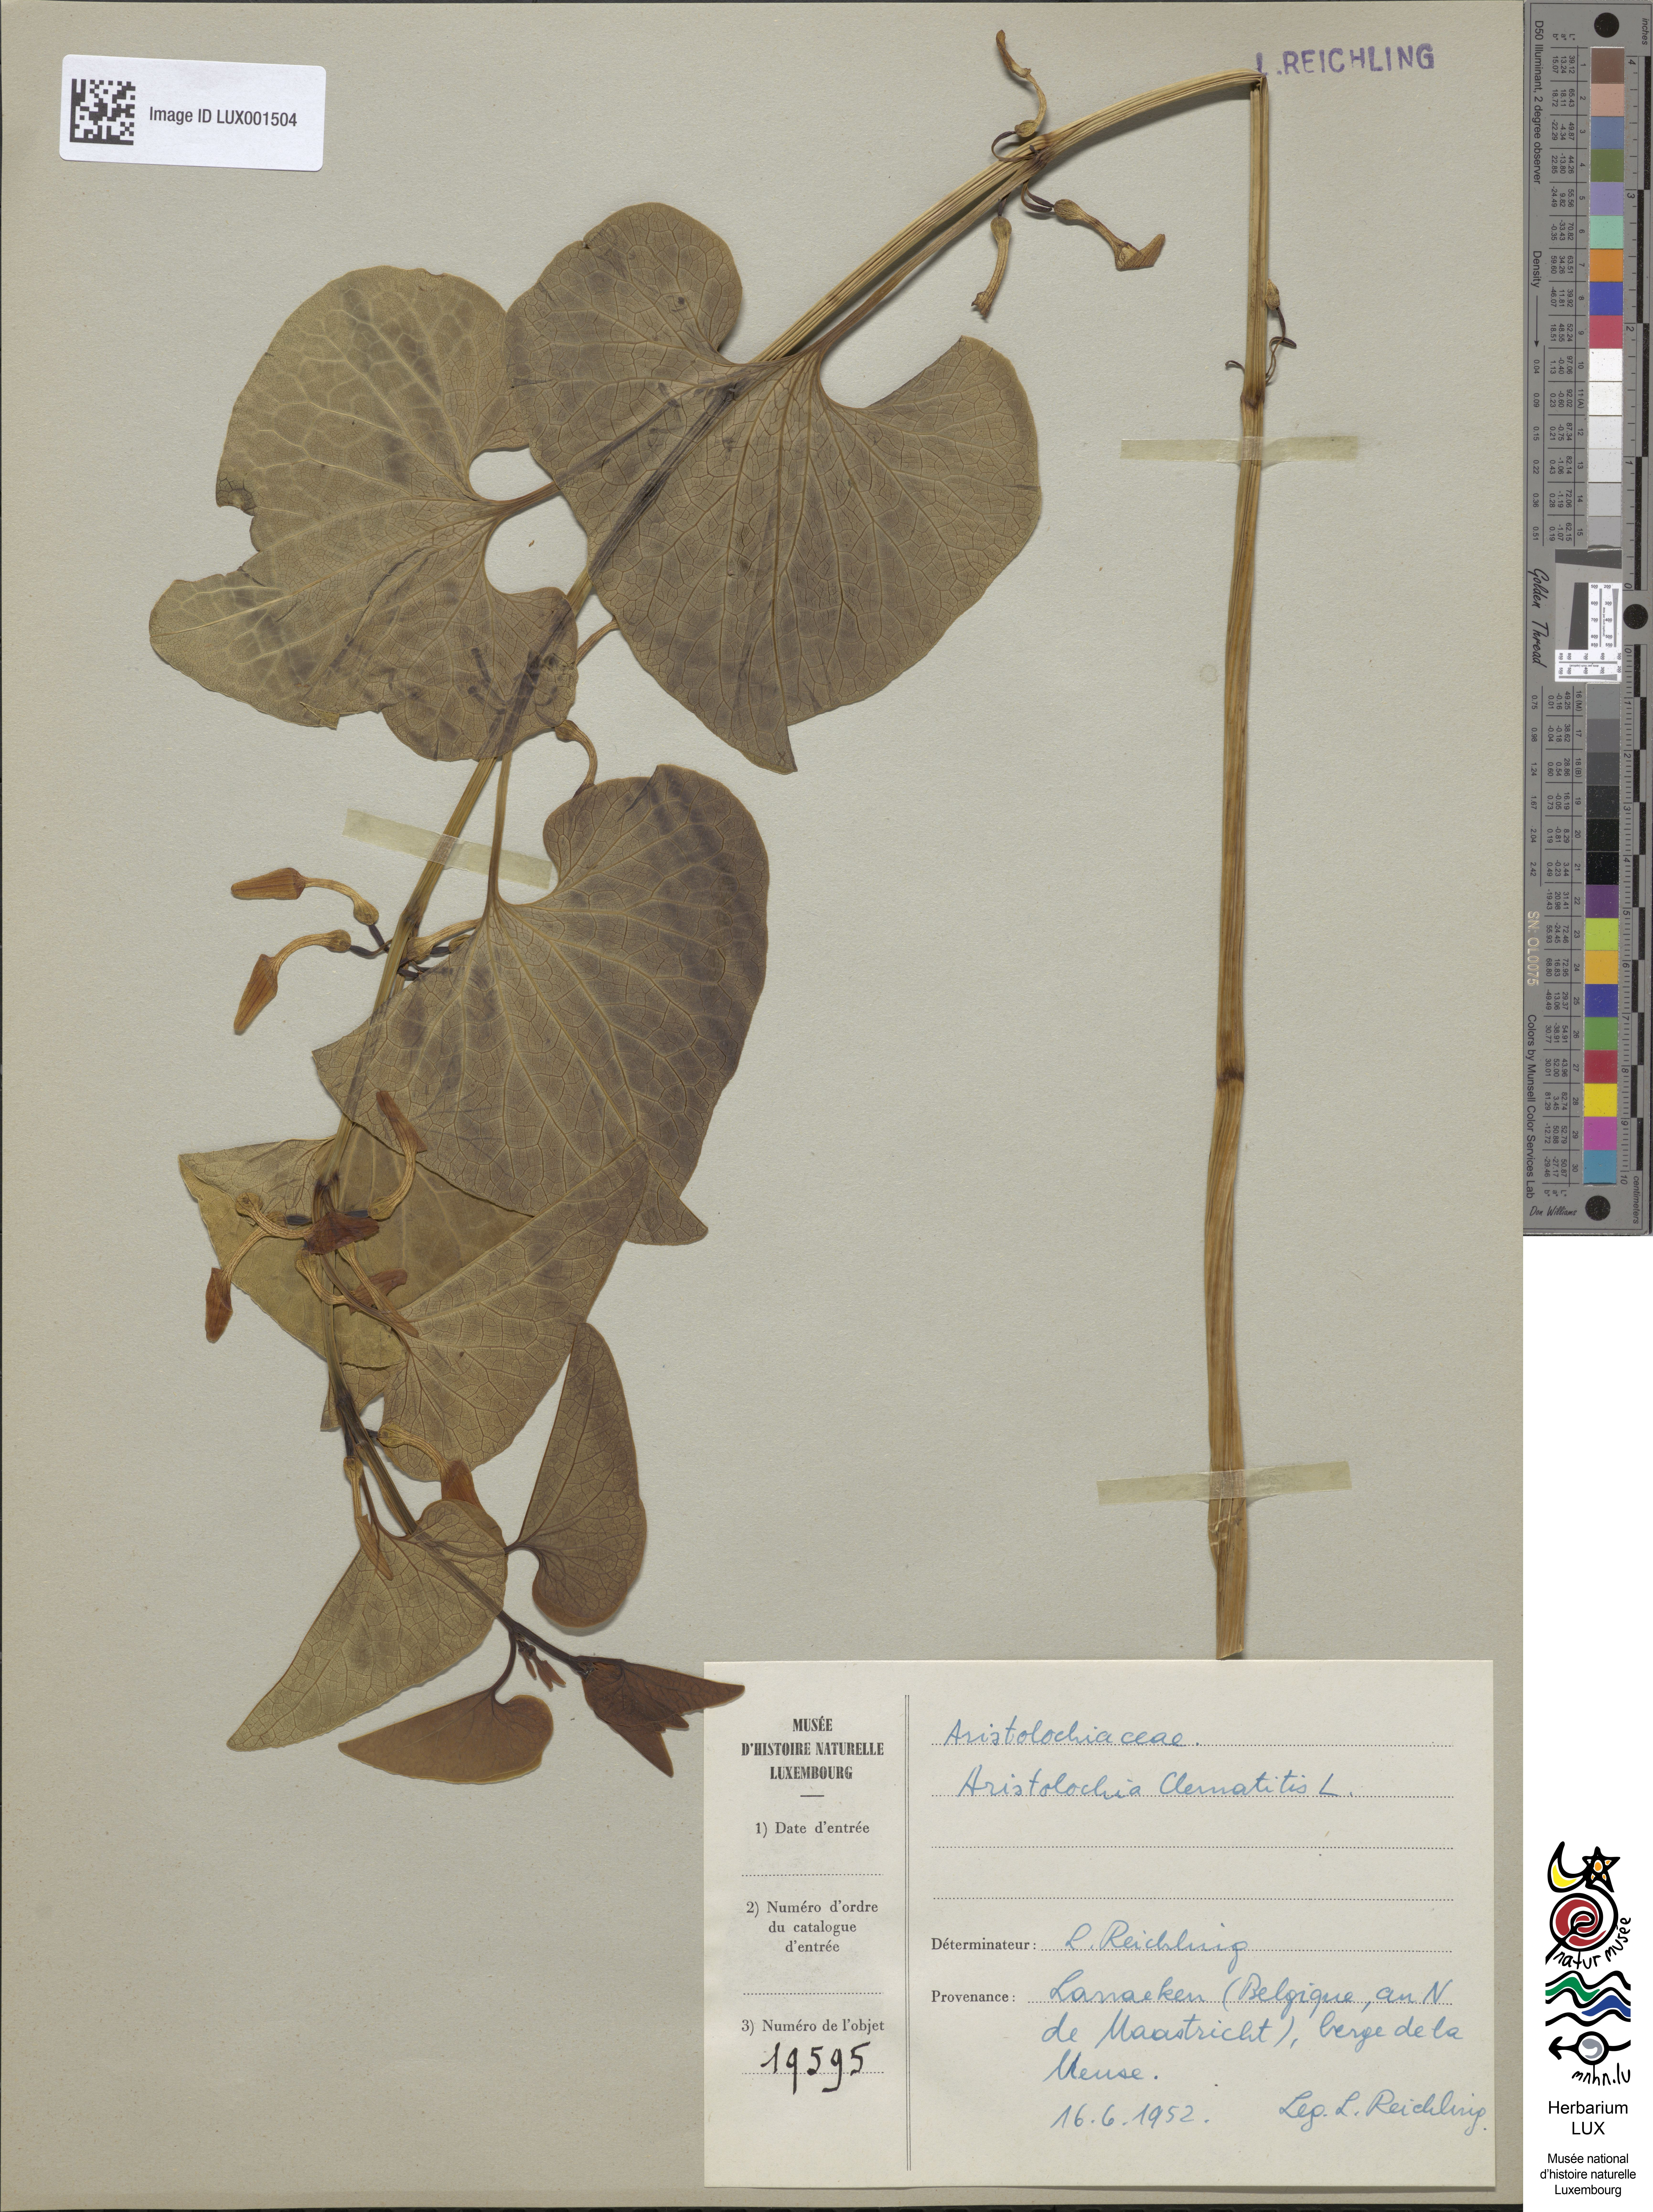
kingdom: Plantae
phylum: Tracheophyta
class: Magnoliopsida
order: Piperales
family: Aristolochiaceae
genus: Aristolochia
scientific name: Aristolochia clematitis
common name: Birthwort
